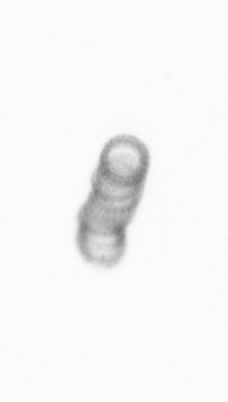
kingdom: Chromista
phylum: Ochrophyta
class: Bacillariophyceae
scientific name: Bacillariophyceae
